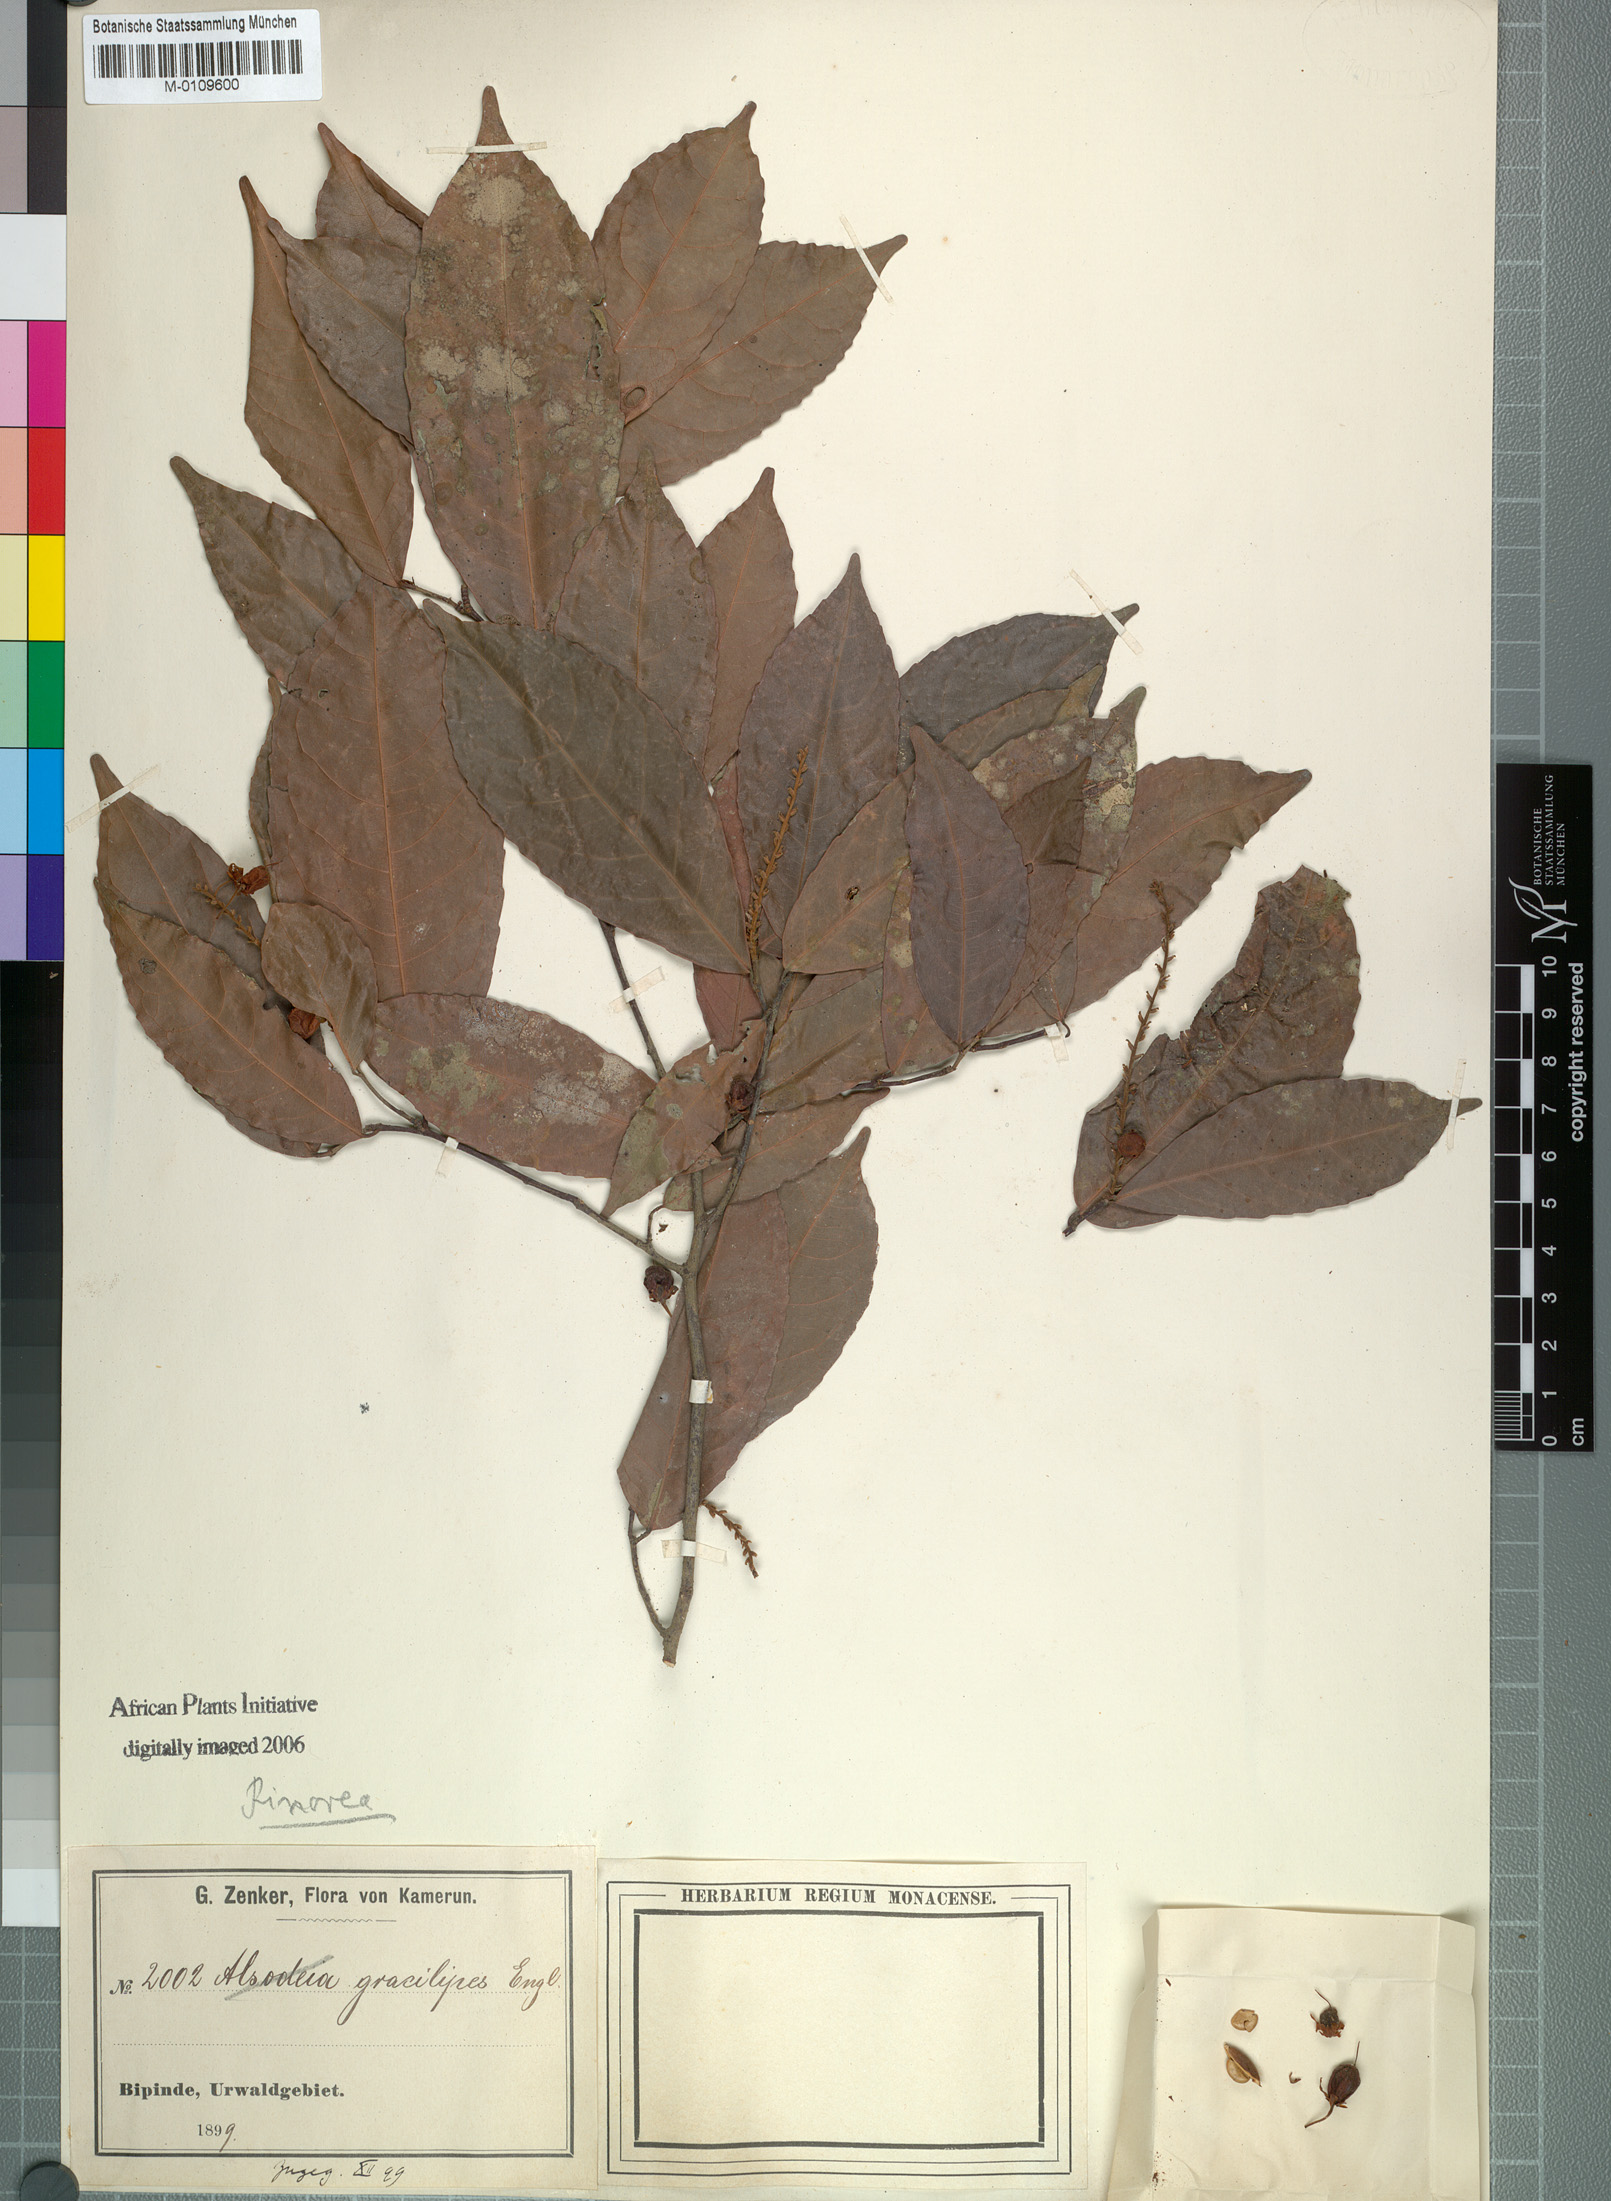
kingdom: Plantae
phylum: Tracheophyta
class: Magnoliopsida
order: Malpighiales
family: Violaceae
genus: Rinorea
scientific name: Rinorea angustifolia
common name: White violet-bush
